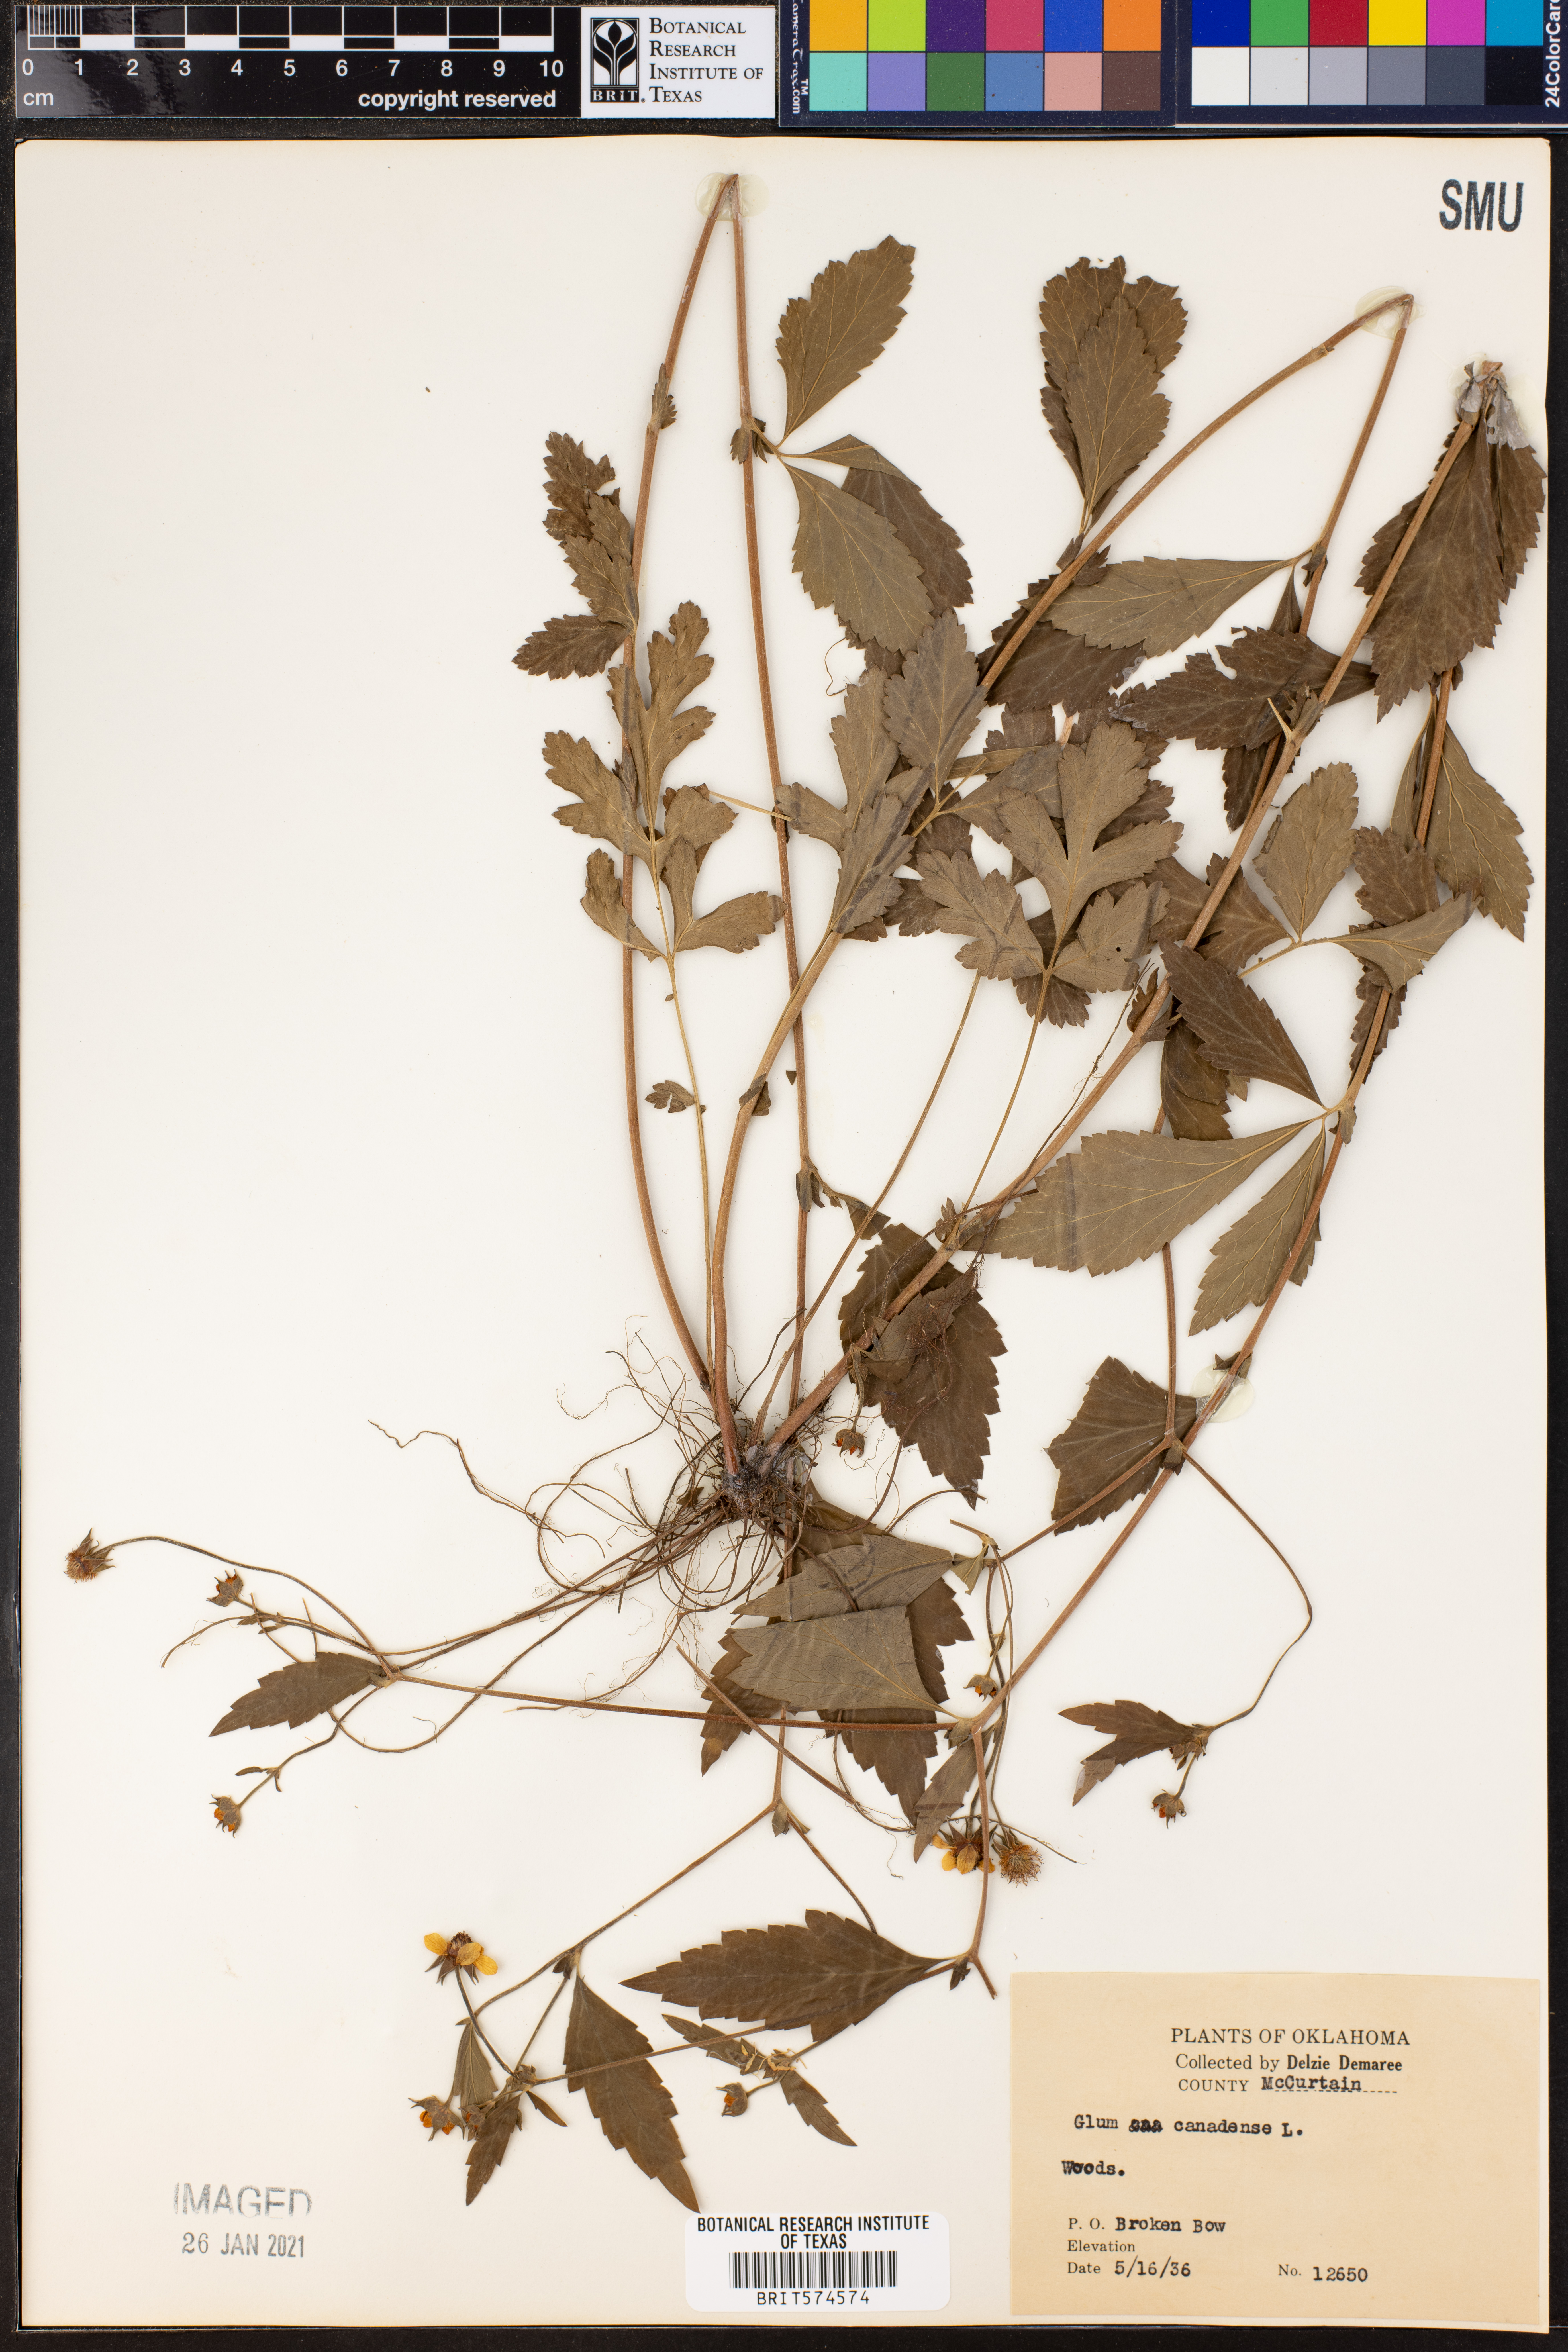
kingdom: Plantae
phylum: Tracheophyta
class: Magnoliopsida
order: Rosales
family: Rosaceae
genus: Geum
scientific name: Geum canadense
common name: White avens
